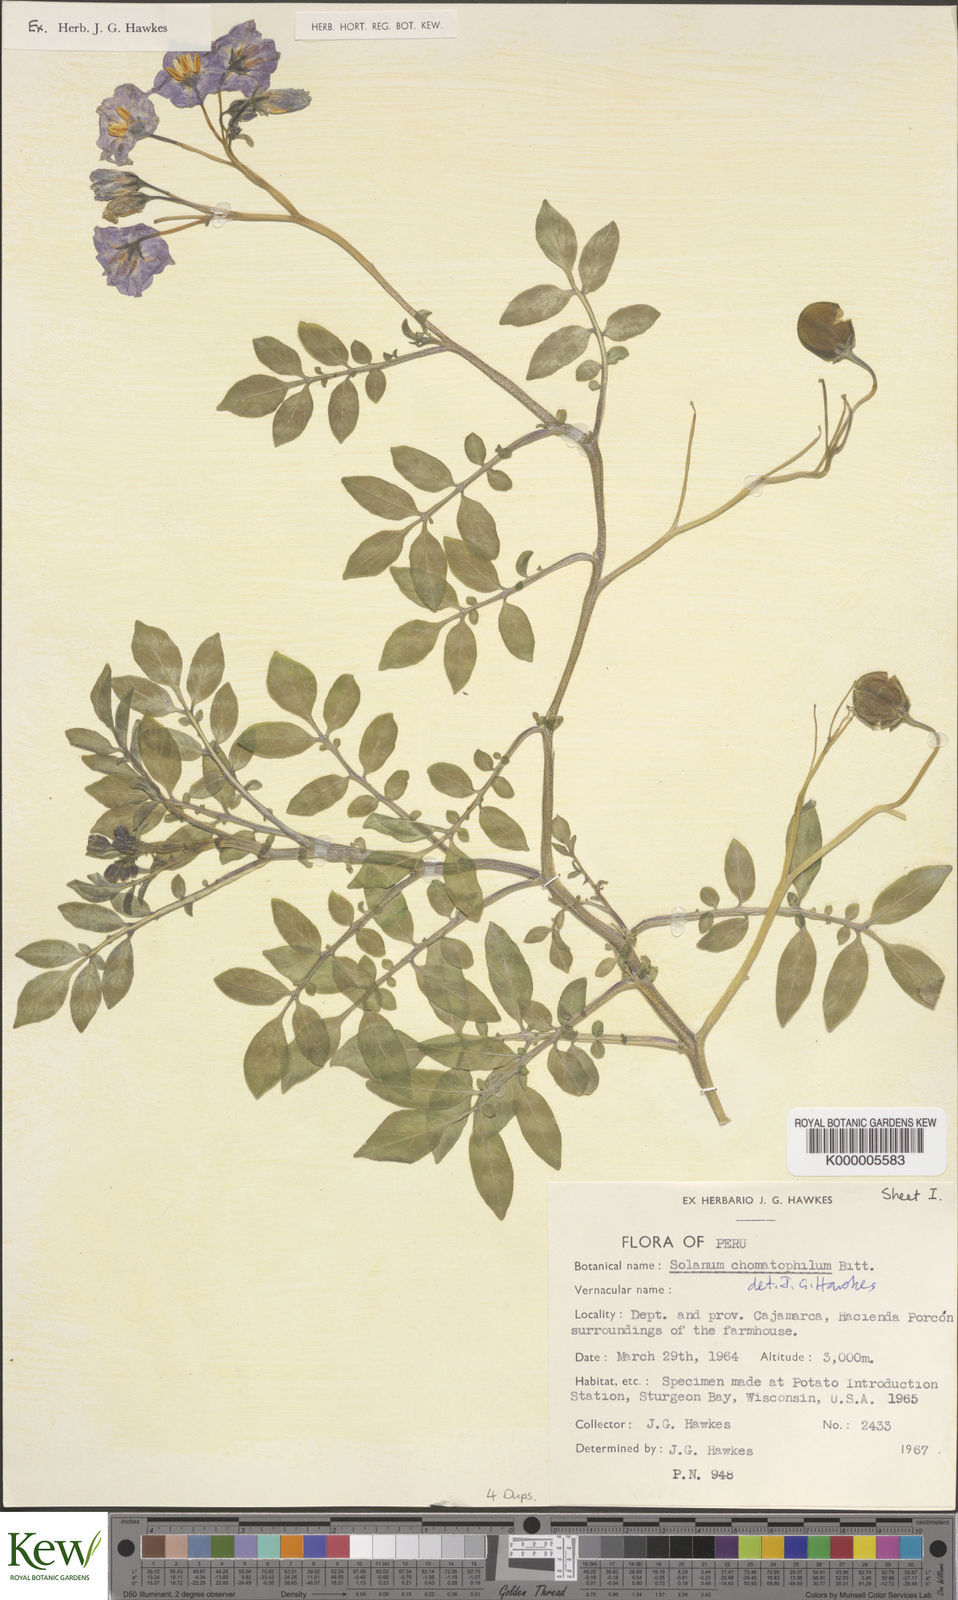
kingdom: Plantae
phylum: Tracheophyta
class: Magnoliopsida
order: Solanales
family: Solanaceae
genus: Solanum
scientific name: Solanum chomatophilum
